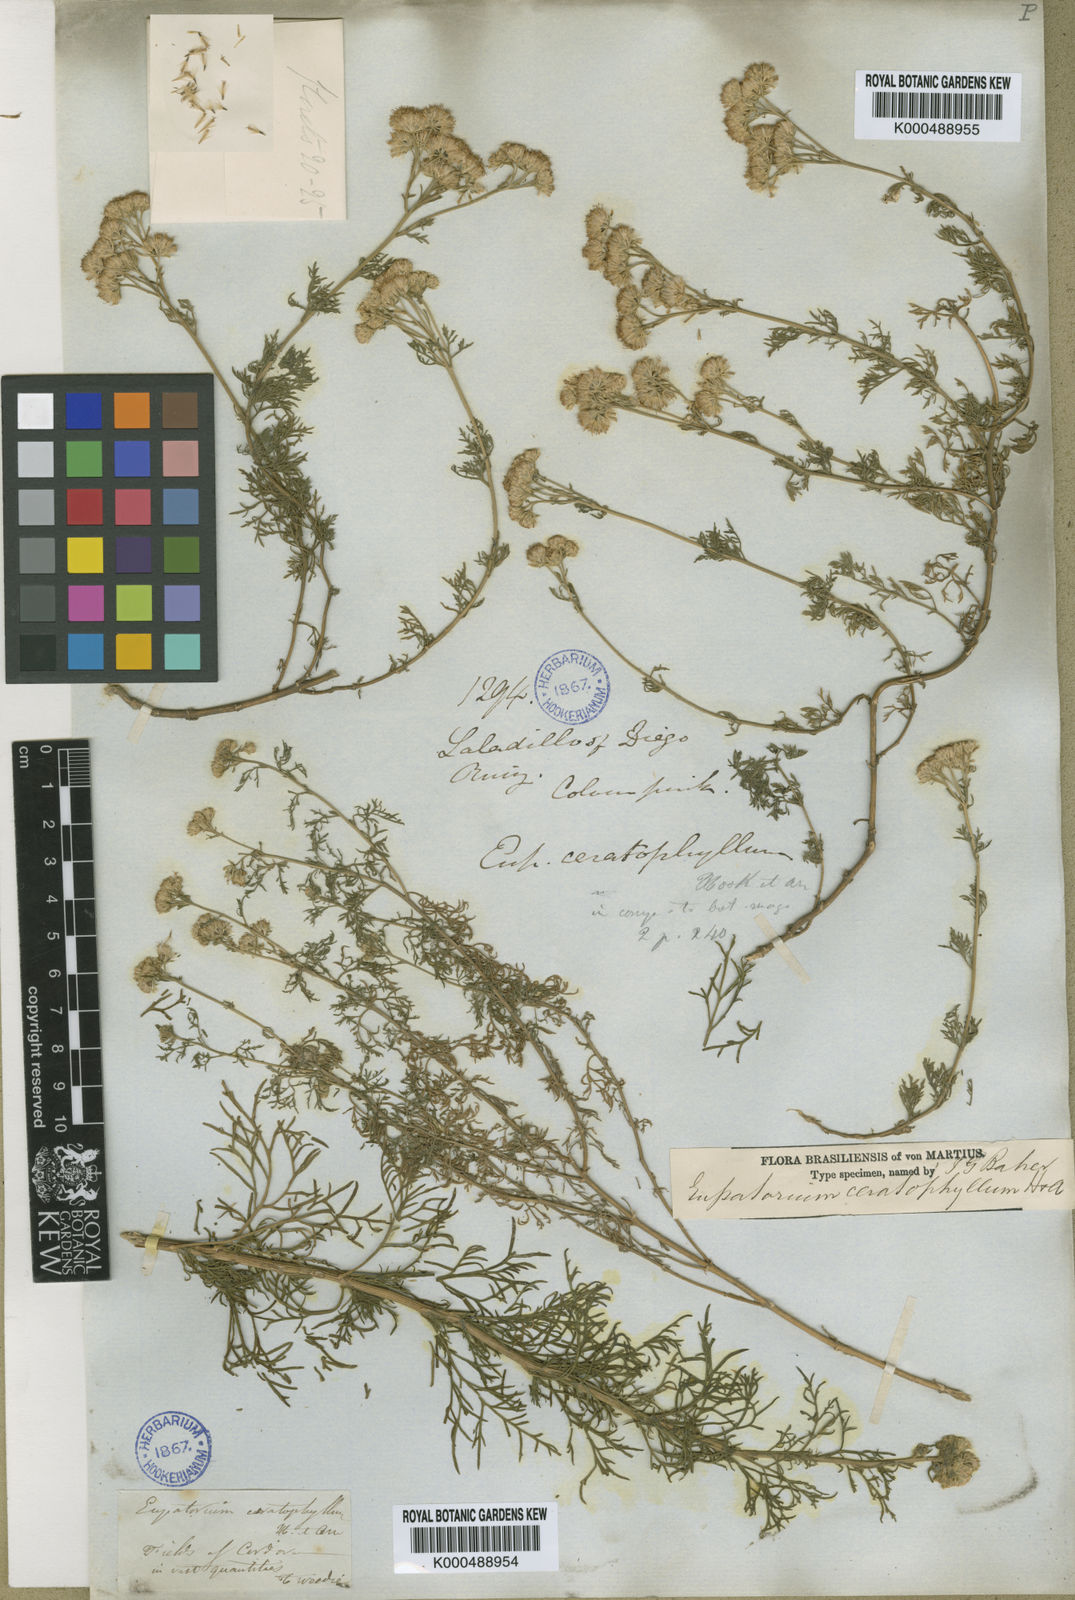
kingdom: Plantae
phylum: Tracheophyta
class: Magnoliopsida
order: Asterales
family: Asteraceae
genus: Gyptis
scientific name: Gyptis pinnatifida
